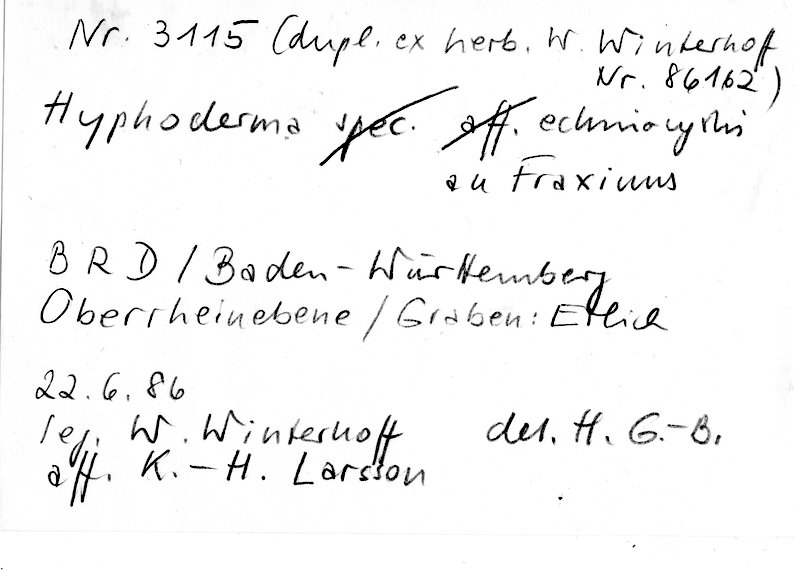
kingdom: Fungi
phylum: Basidiomycota
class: Agaricomycetes
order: Hymenochaetales
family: Rickenellaceae
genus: Peniophorella
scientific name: Peniophorella echinocystis
